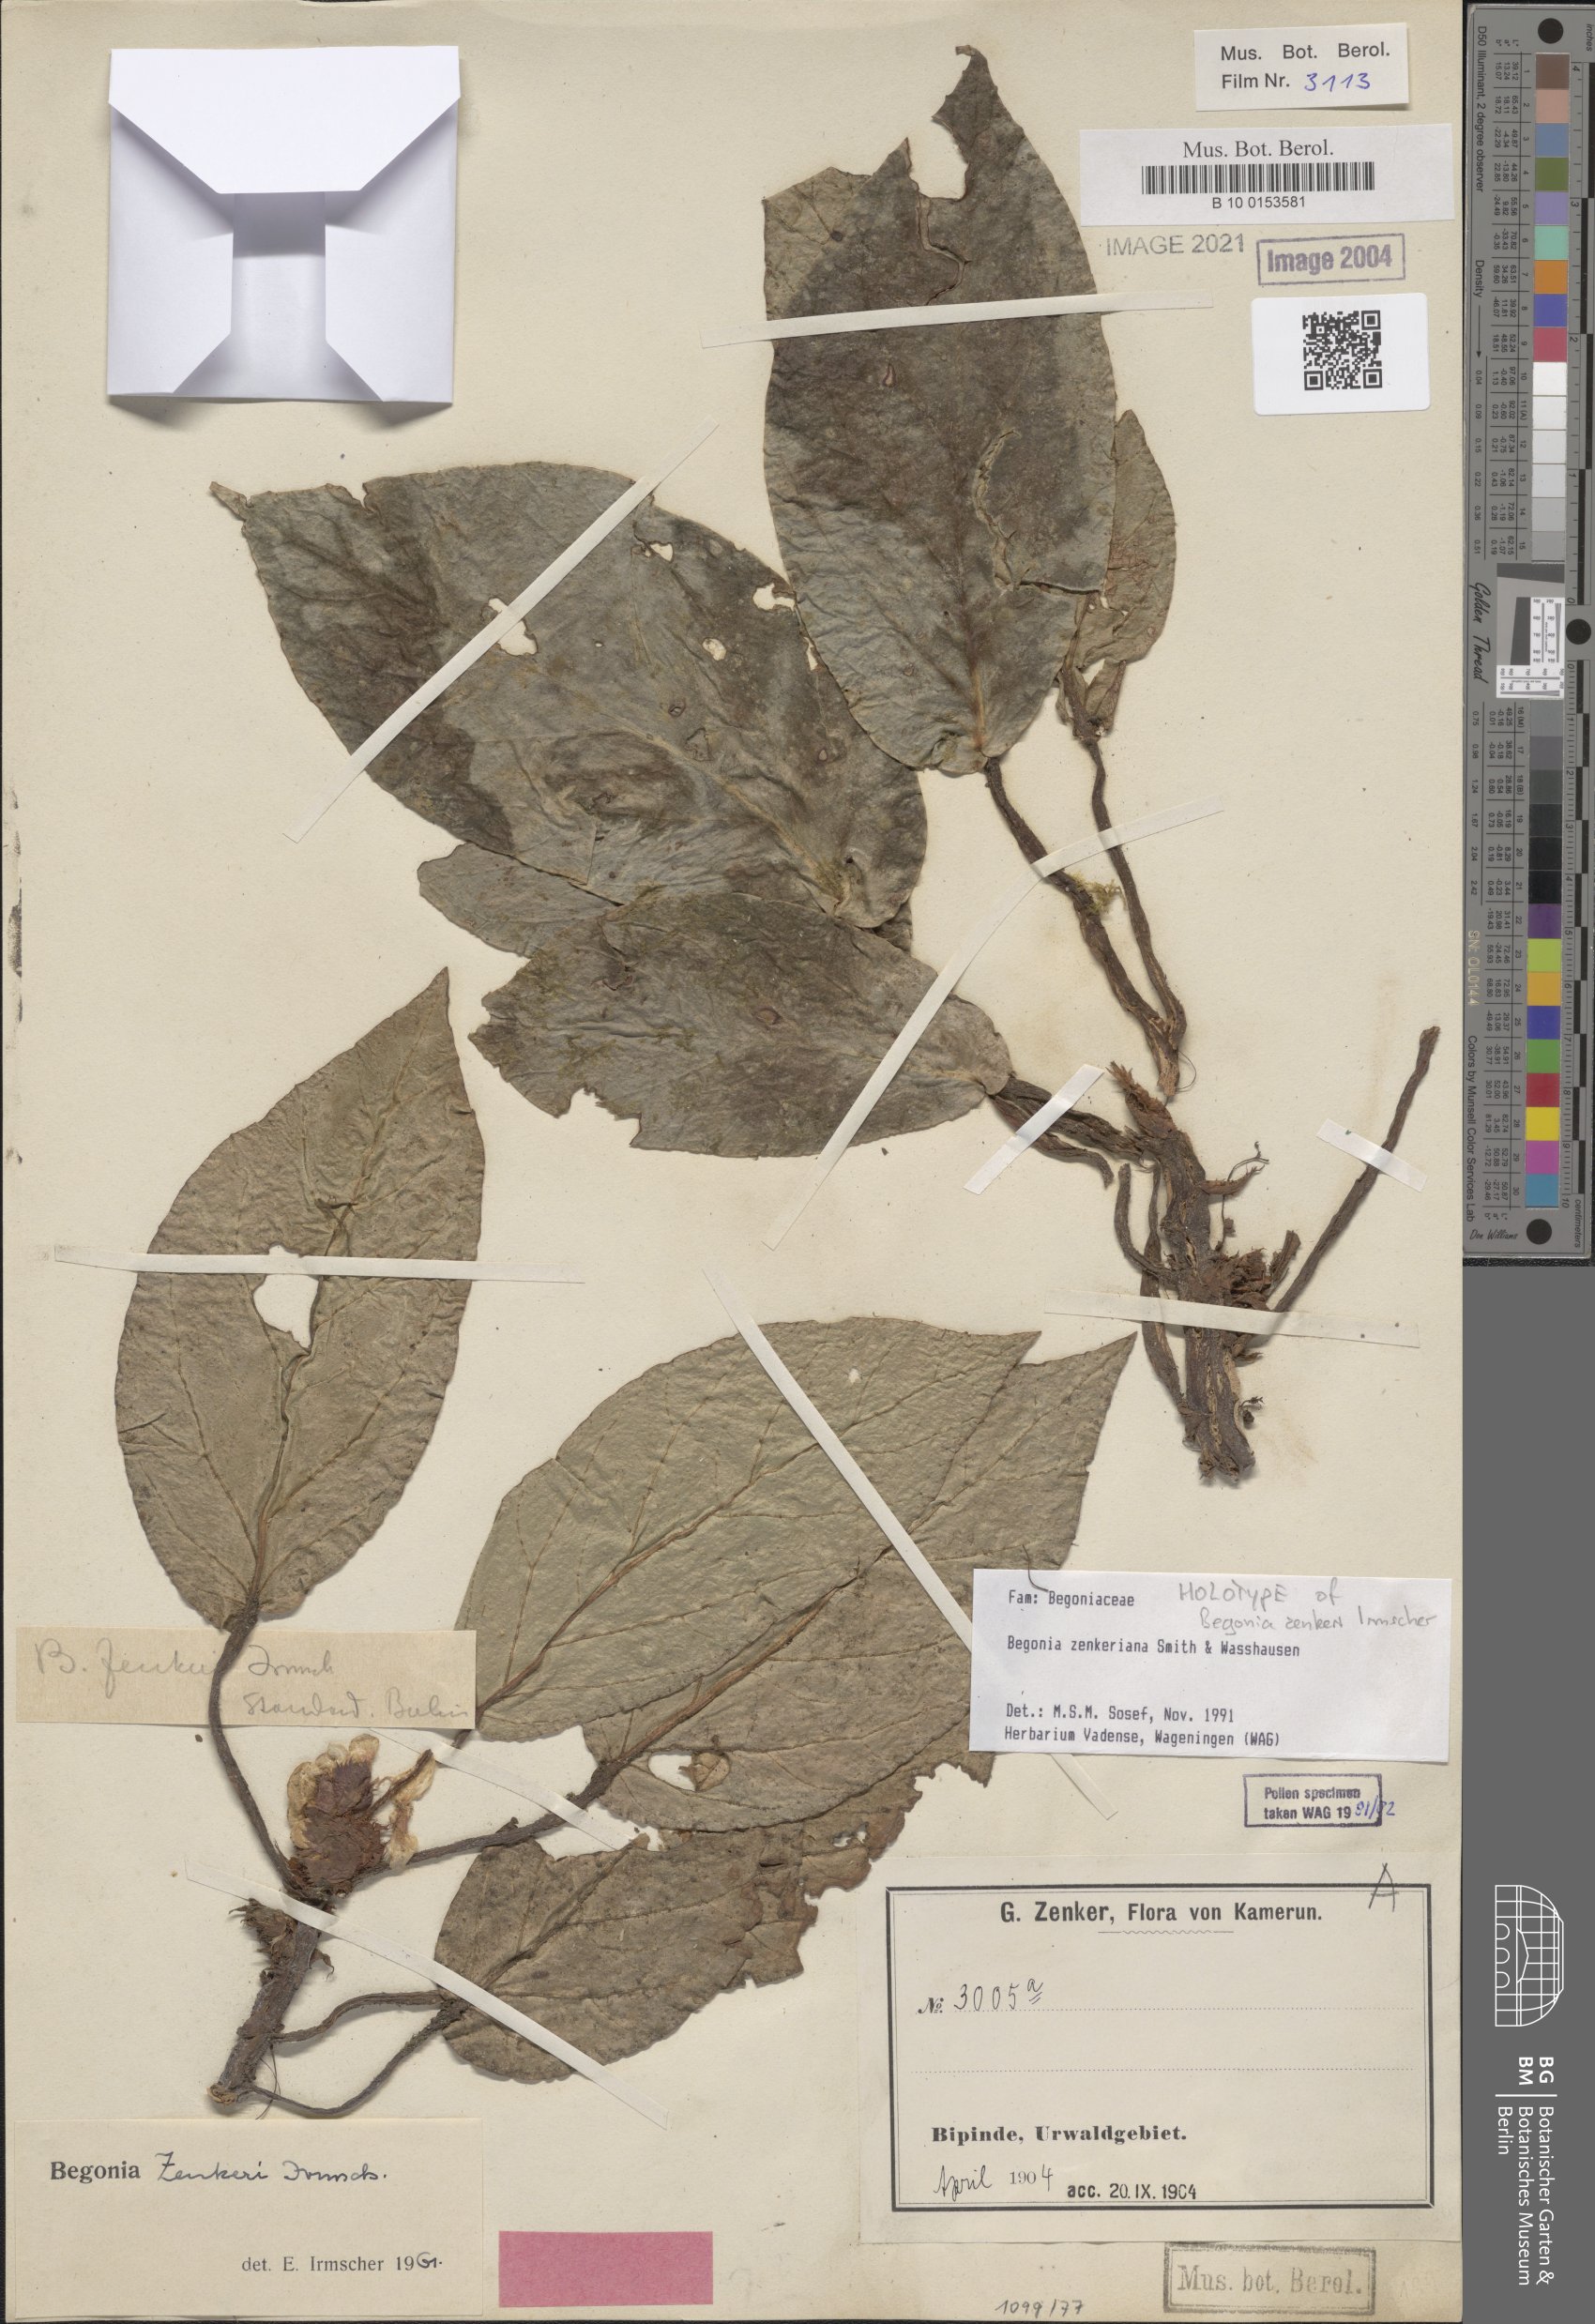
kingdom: Plantae
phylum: Tracheophyta
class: Magnoliopsida
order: Cucurbitales
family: Begoniaceae
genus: Begonia
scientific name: Begonia zenkeriana
